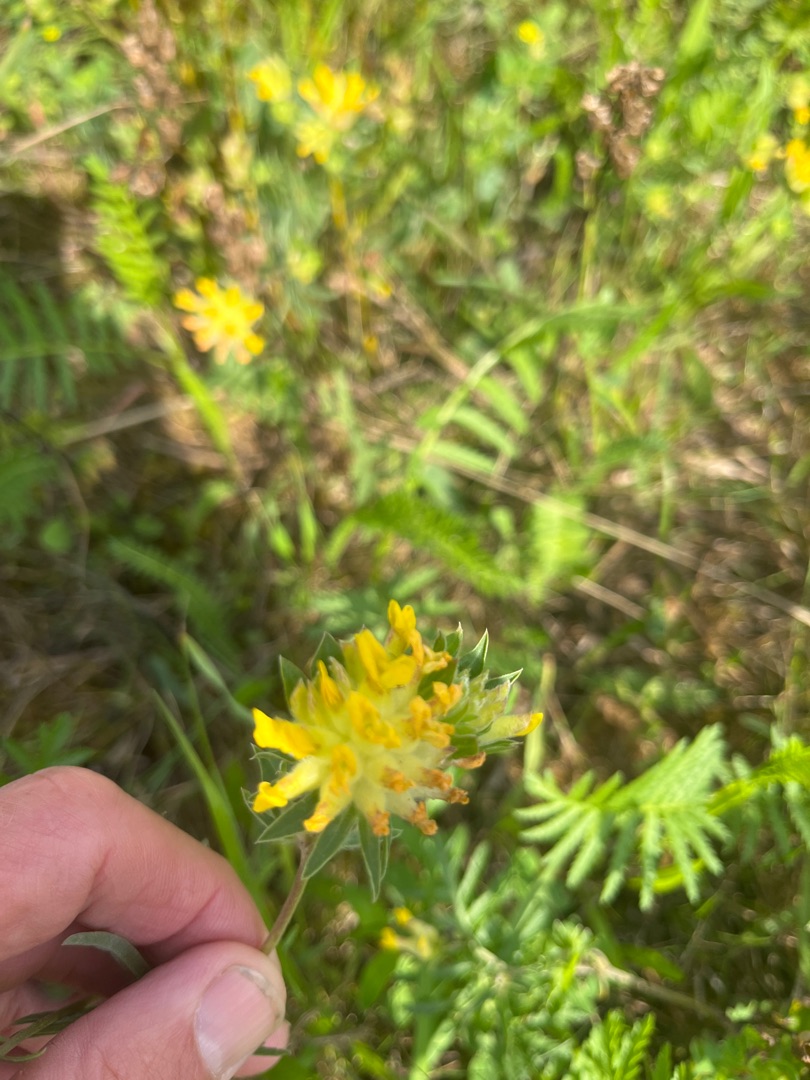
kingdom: Plantae
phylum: Tracheophyta
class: Magnoliopsida
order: Fabales
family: Fabaceae
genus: Anthyllis
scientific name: Anthyllis vulneraria
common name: Rundbælg
